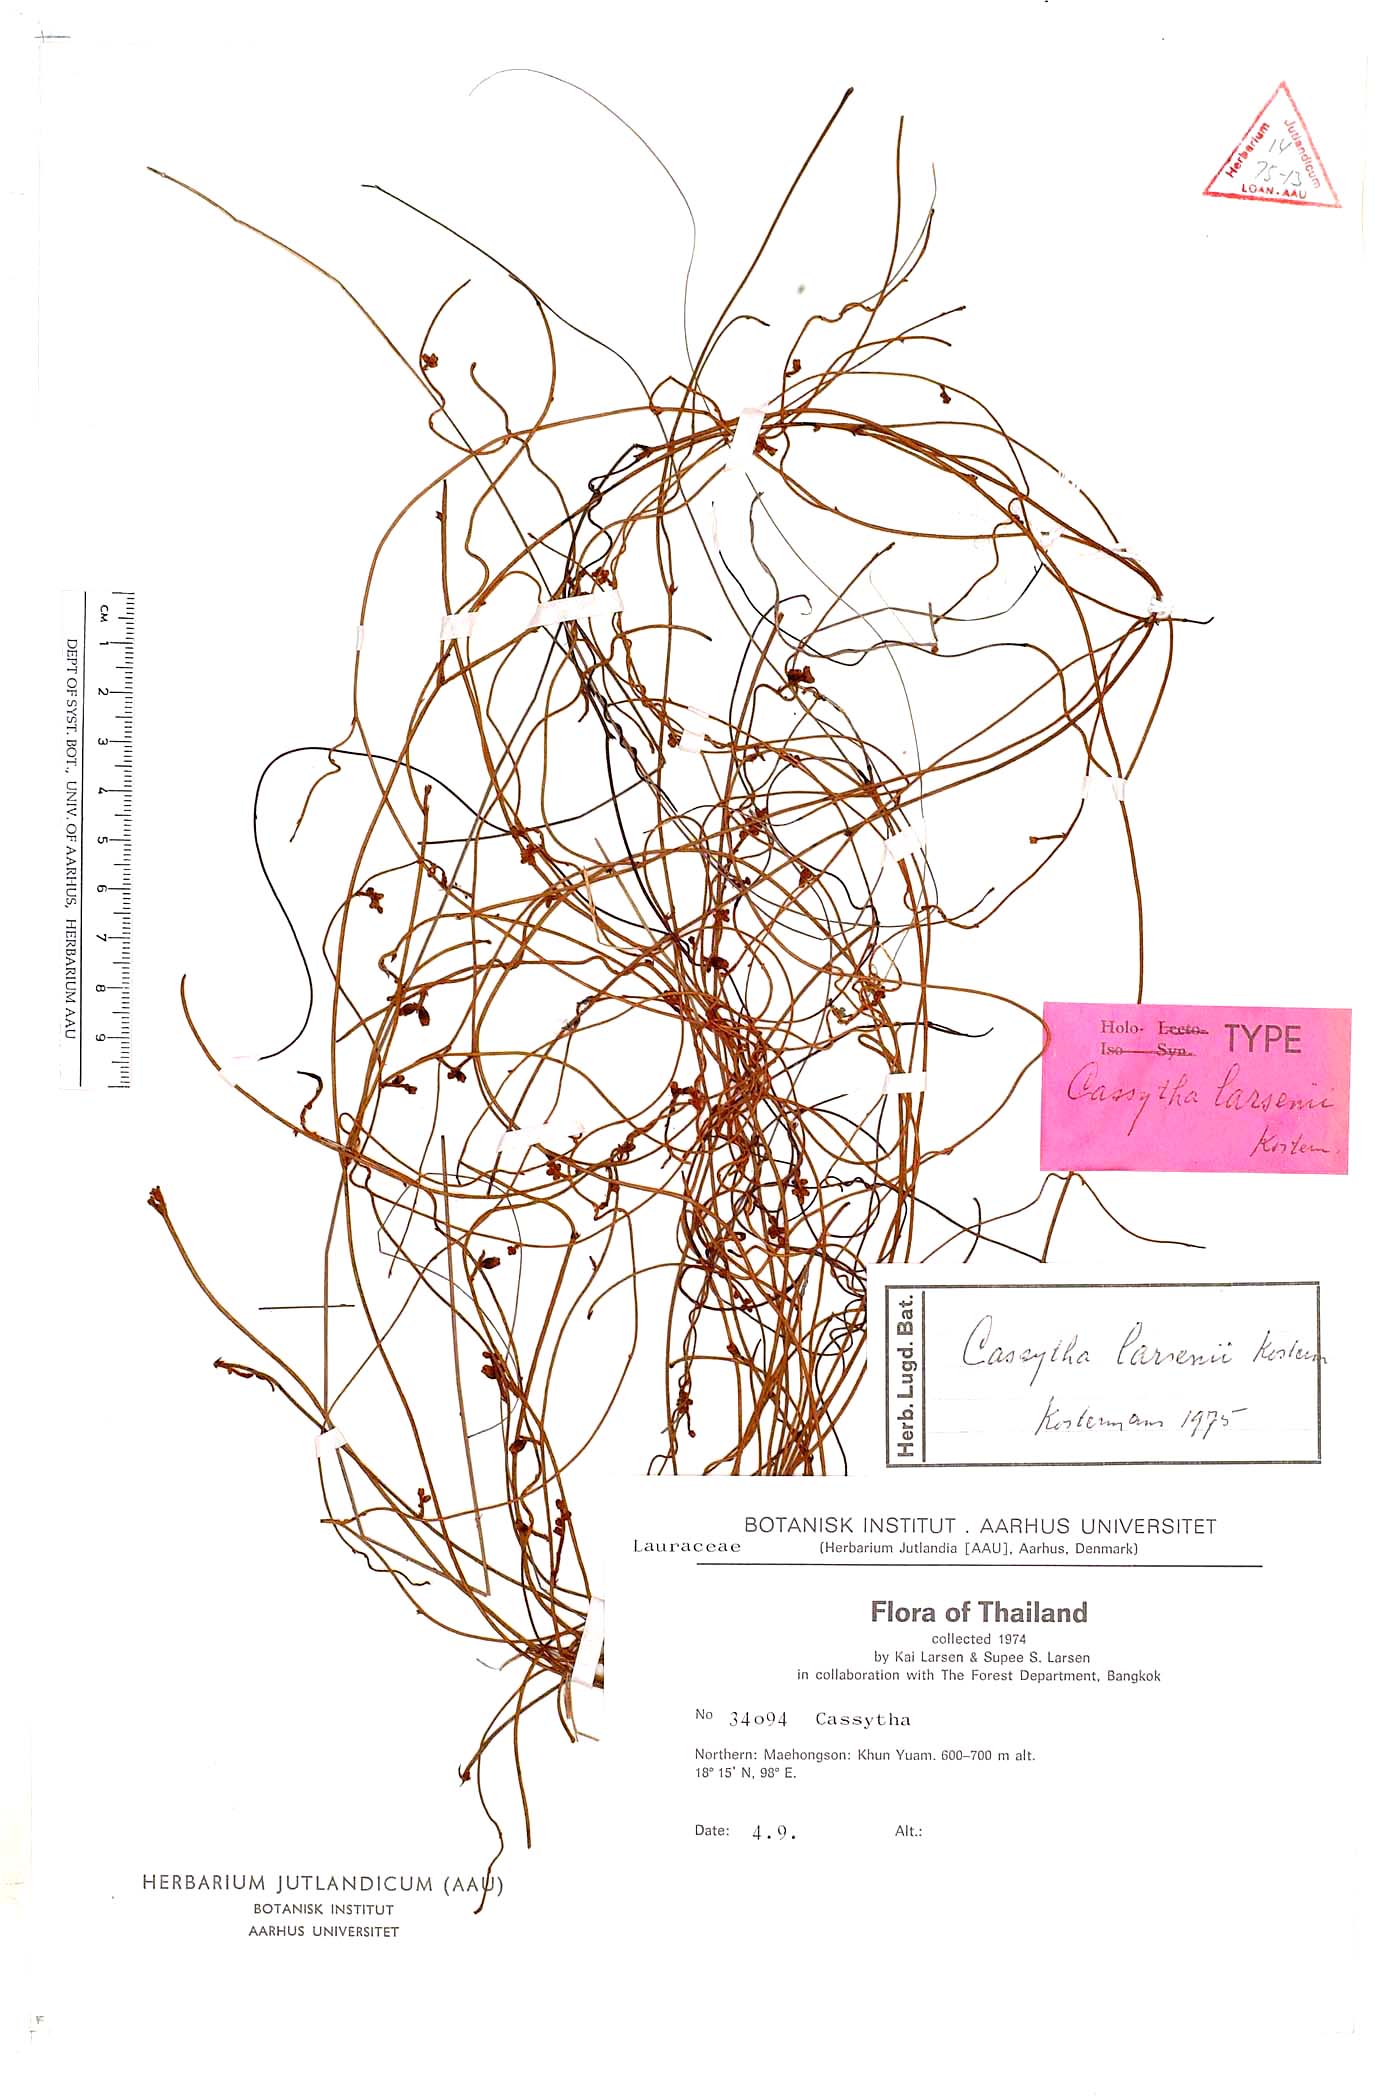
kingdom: Plantae
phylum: Tracheophyta
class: Magnoliopsida
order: Laurales
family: Lauraceae
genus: Cassytha
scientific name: Cassytha larsenii
